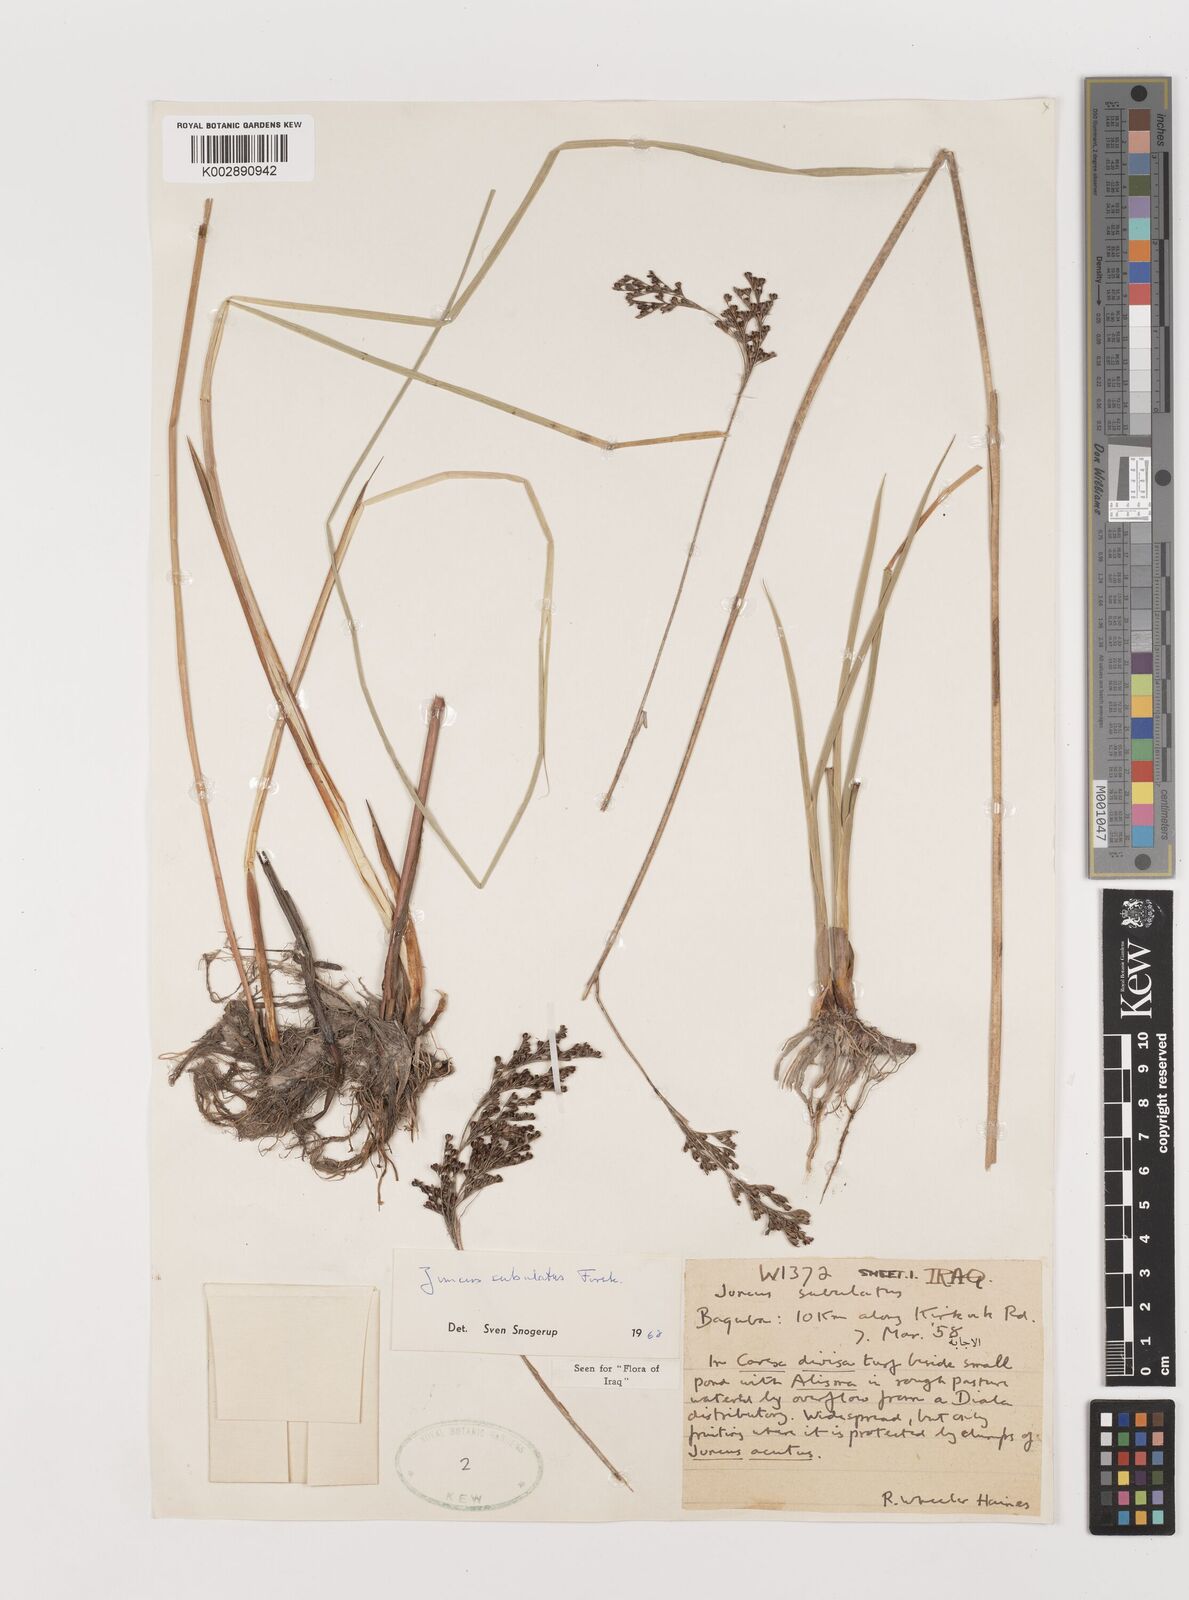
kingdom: Plantae
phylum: Tracheophyta
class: Liliopsida
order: Poales
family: Juncaceae
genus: Juncus
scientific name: Juncus subulatus
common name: Somerset rush
